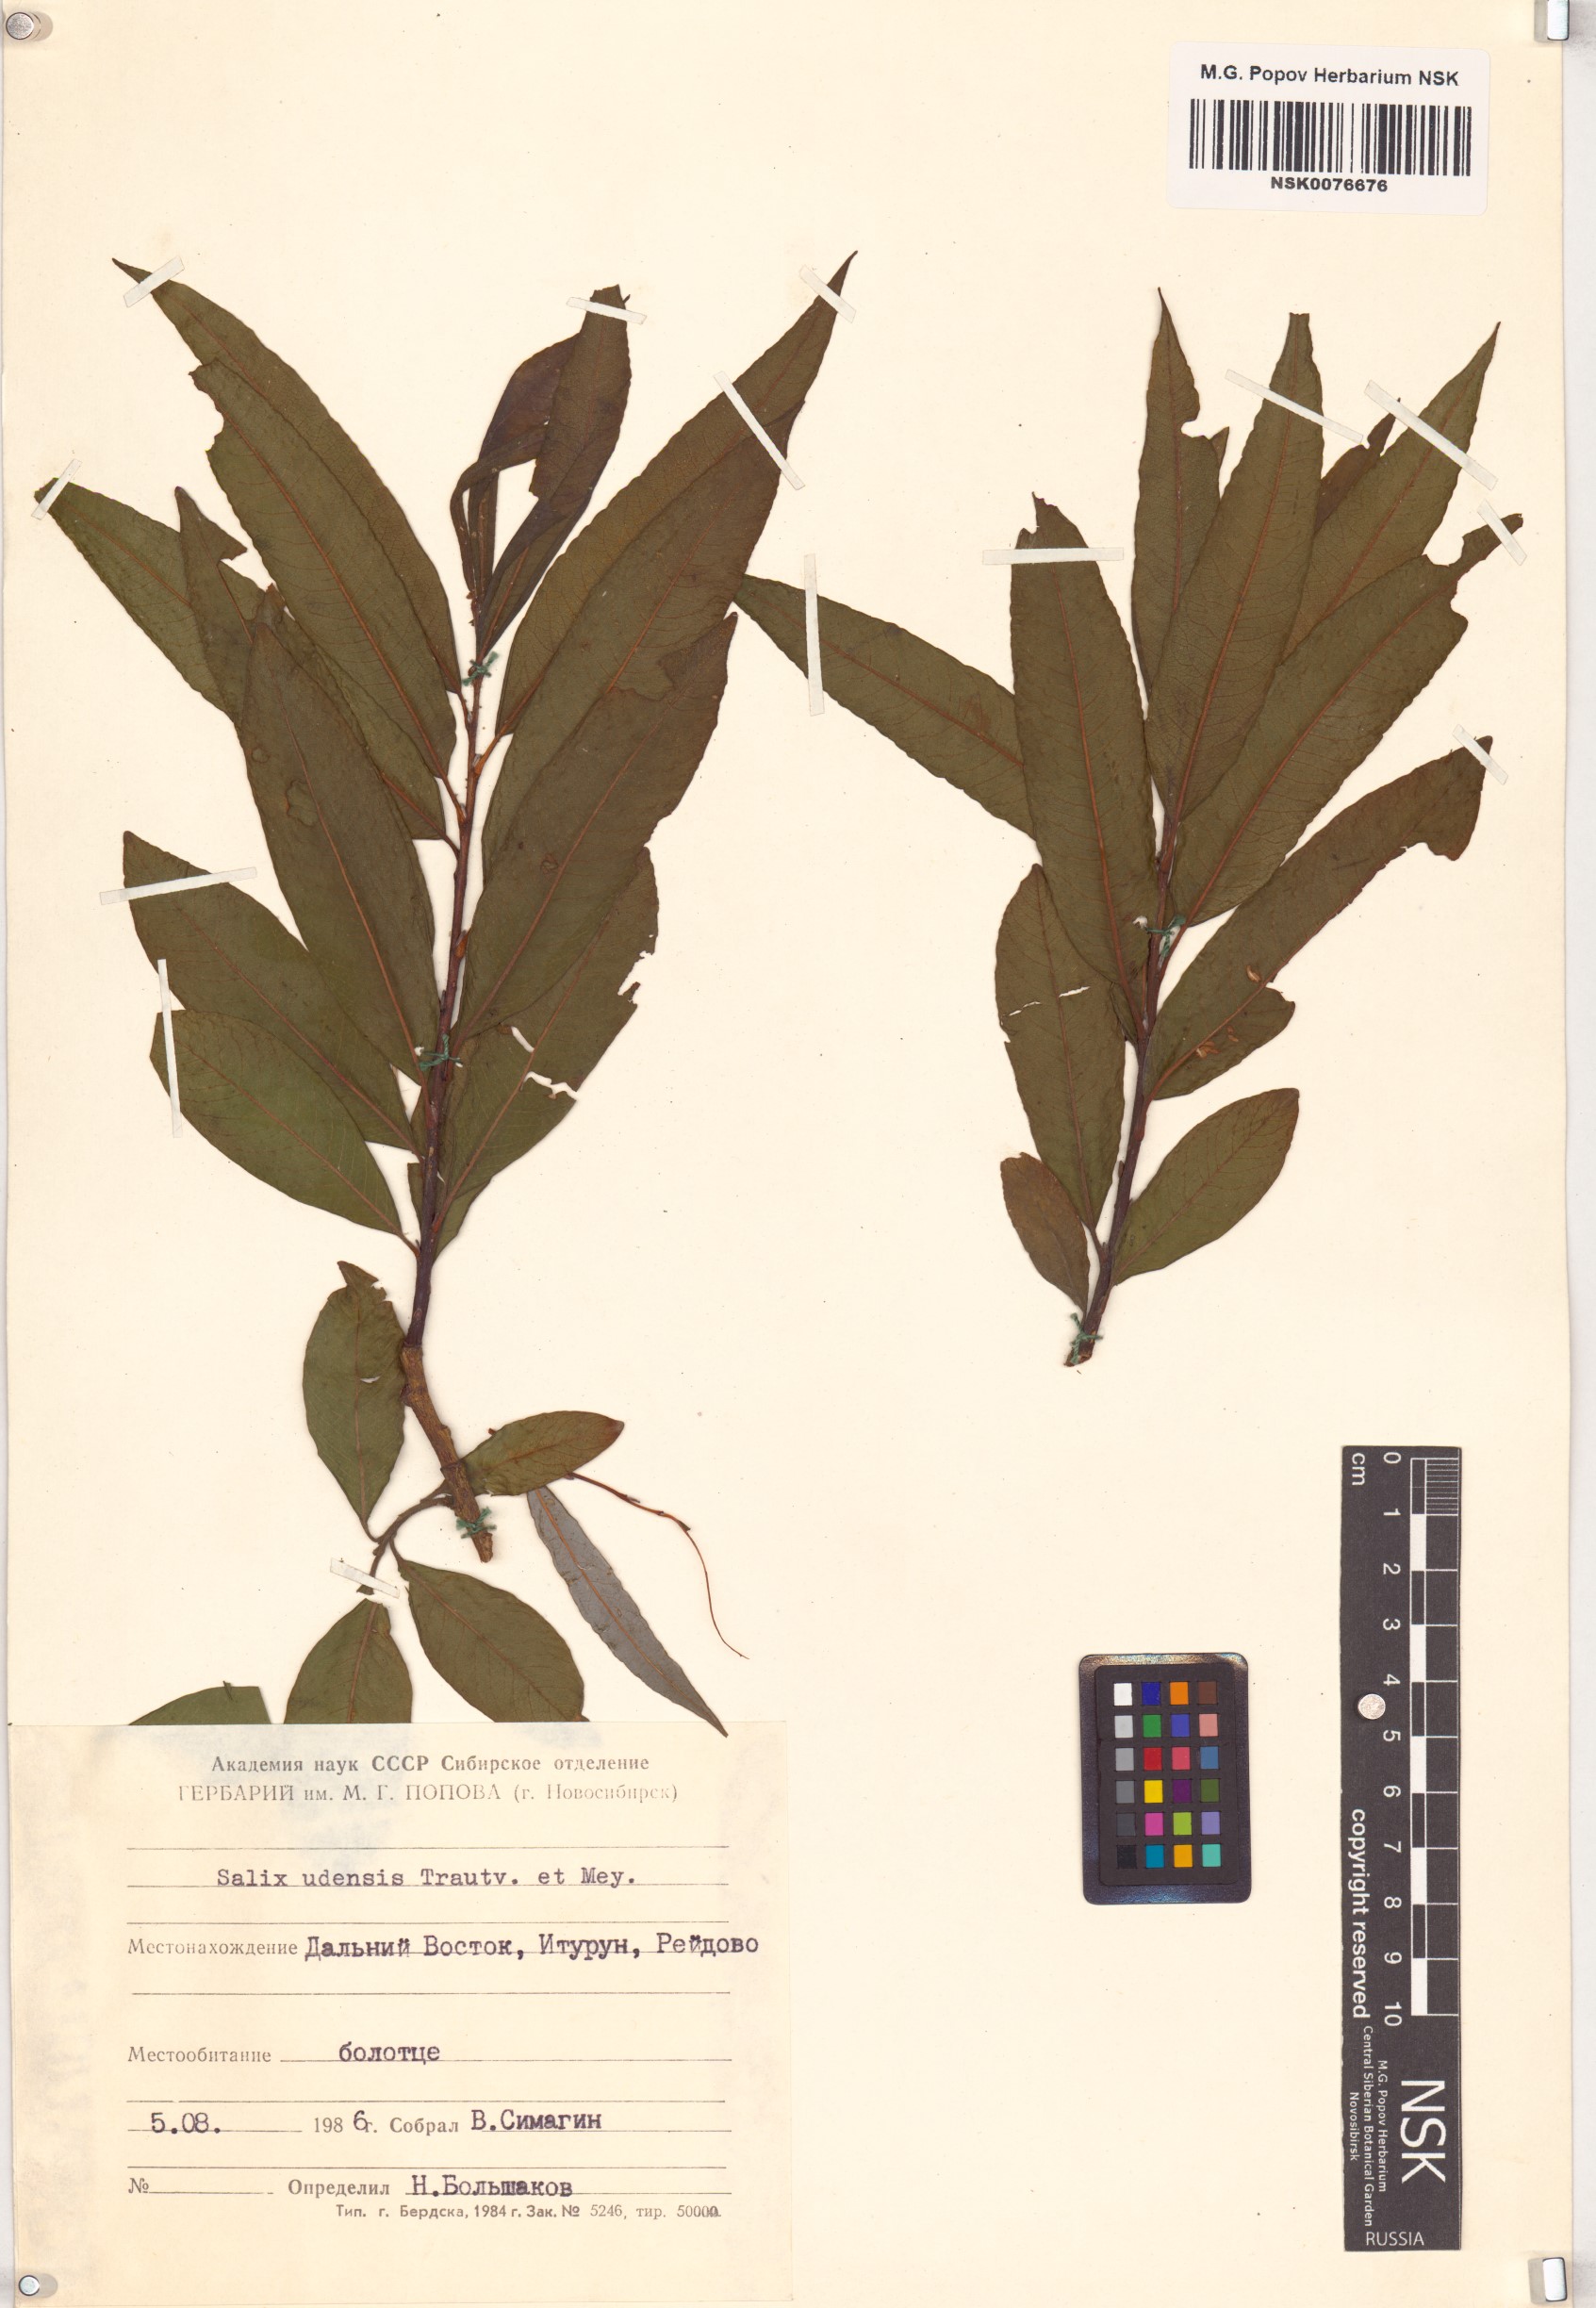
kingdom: Plantae
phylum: Tracheophyta
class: Magnoliopsida
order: Malpighiales
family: Salicaceae
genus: Salix
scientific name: Salix udensis
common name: Sachalin willow
